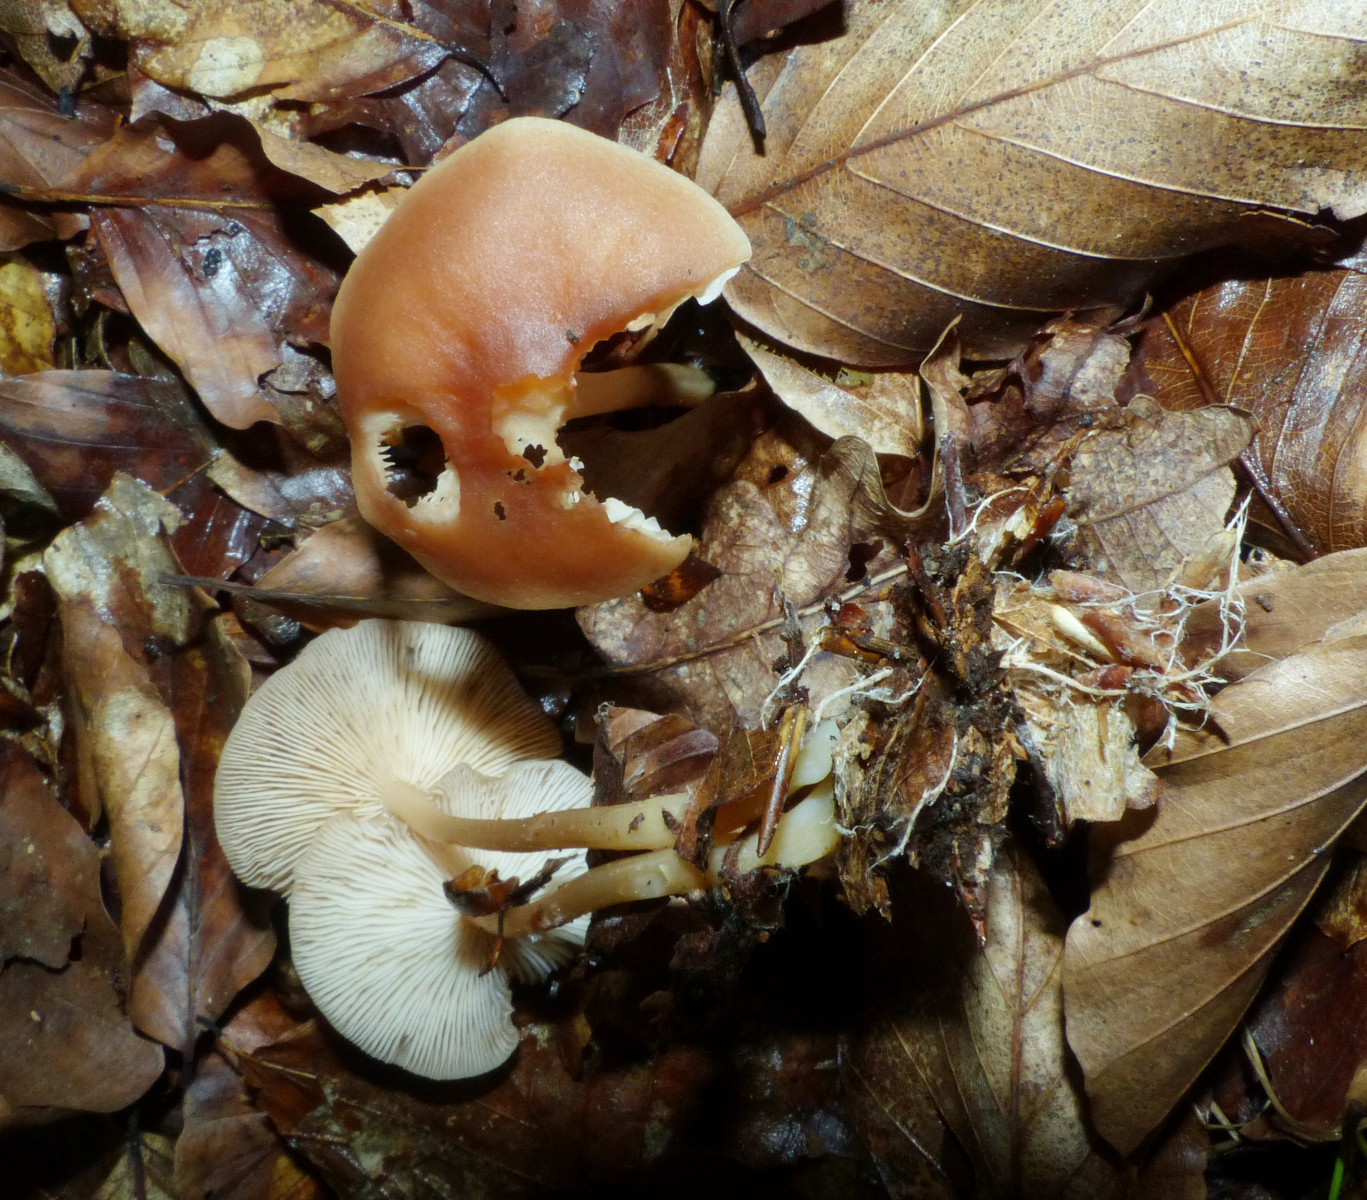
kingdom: Fungi
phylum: Basidiomycota
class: Agaricomycetes
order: Agaricales
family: Omphalotaceae
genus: Gymnopus
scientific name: Gymnopus dryophilus
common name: løv-fladhat
